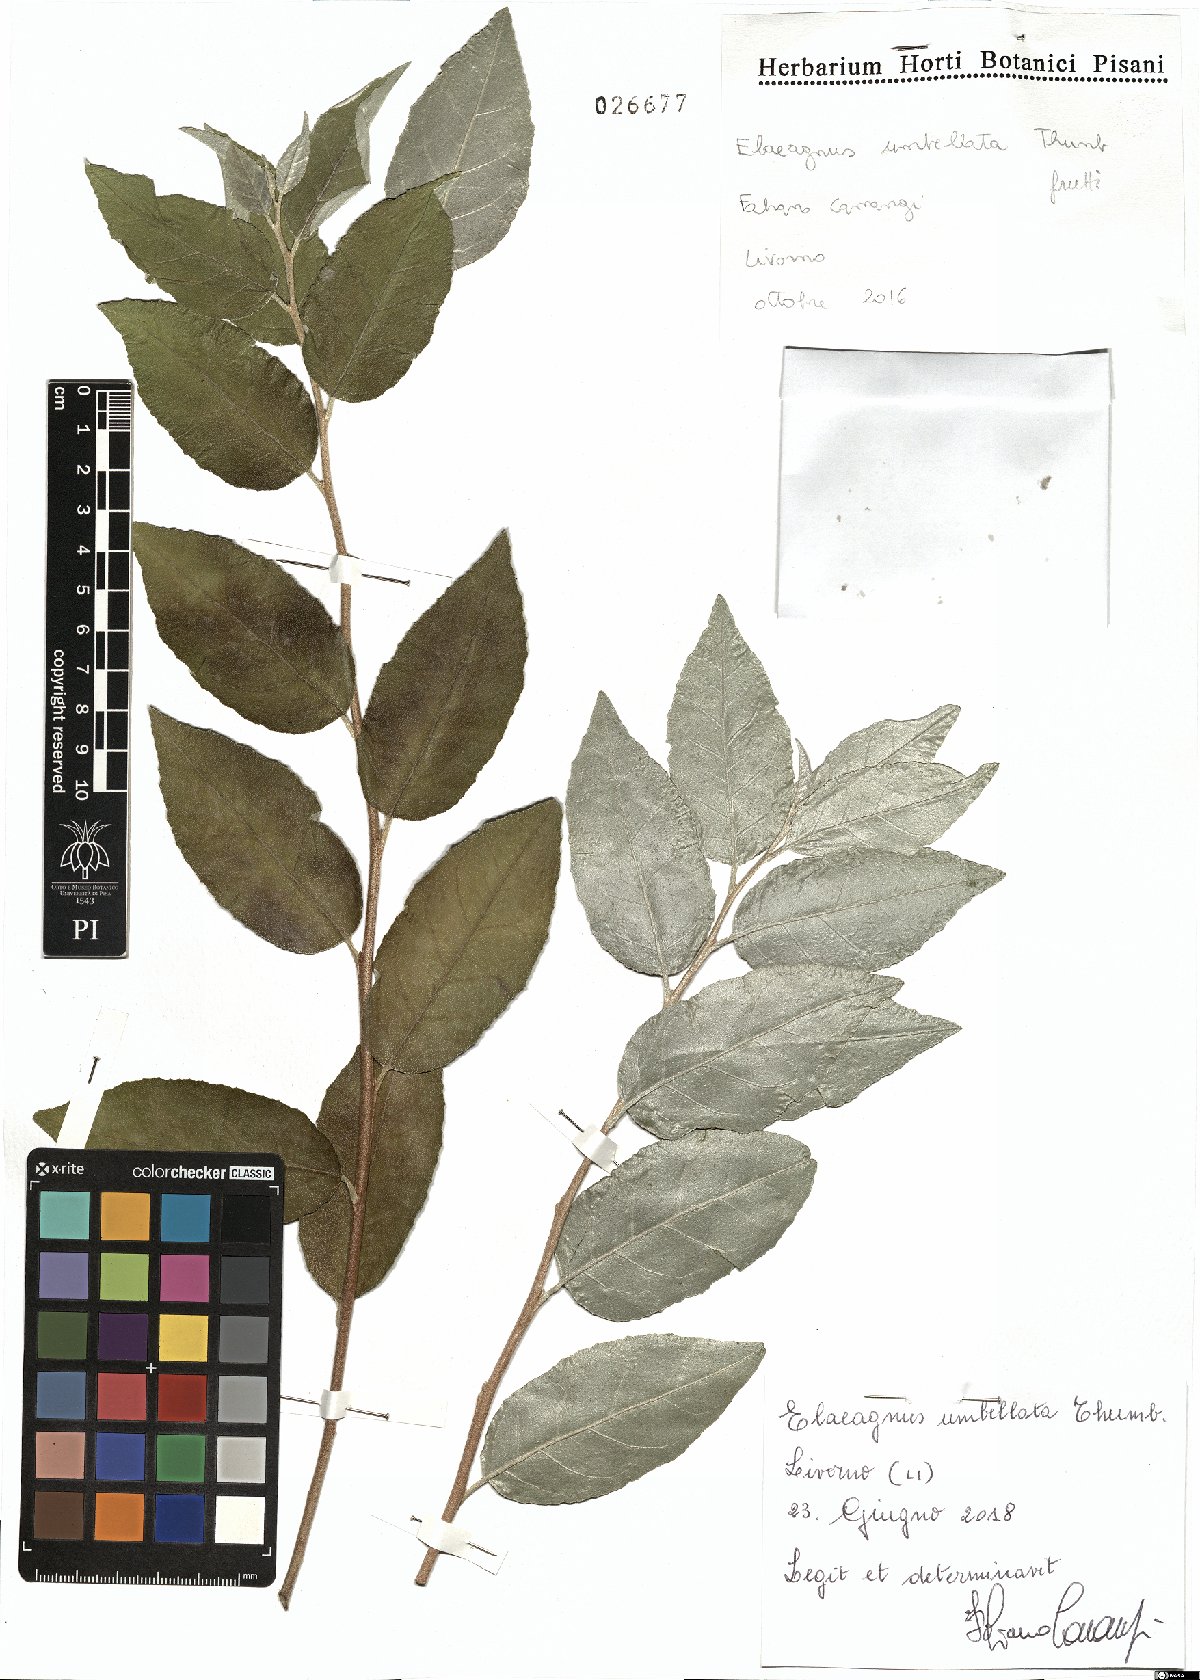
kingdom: Plantae
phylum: Tracheophyta
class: Magnoliopsida
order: Rosales
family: Elaeagnaceae
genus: Elaeagnus
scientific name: Elaeagnus umbellata
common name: Autumn olive
